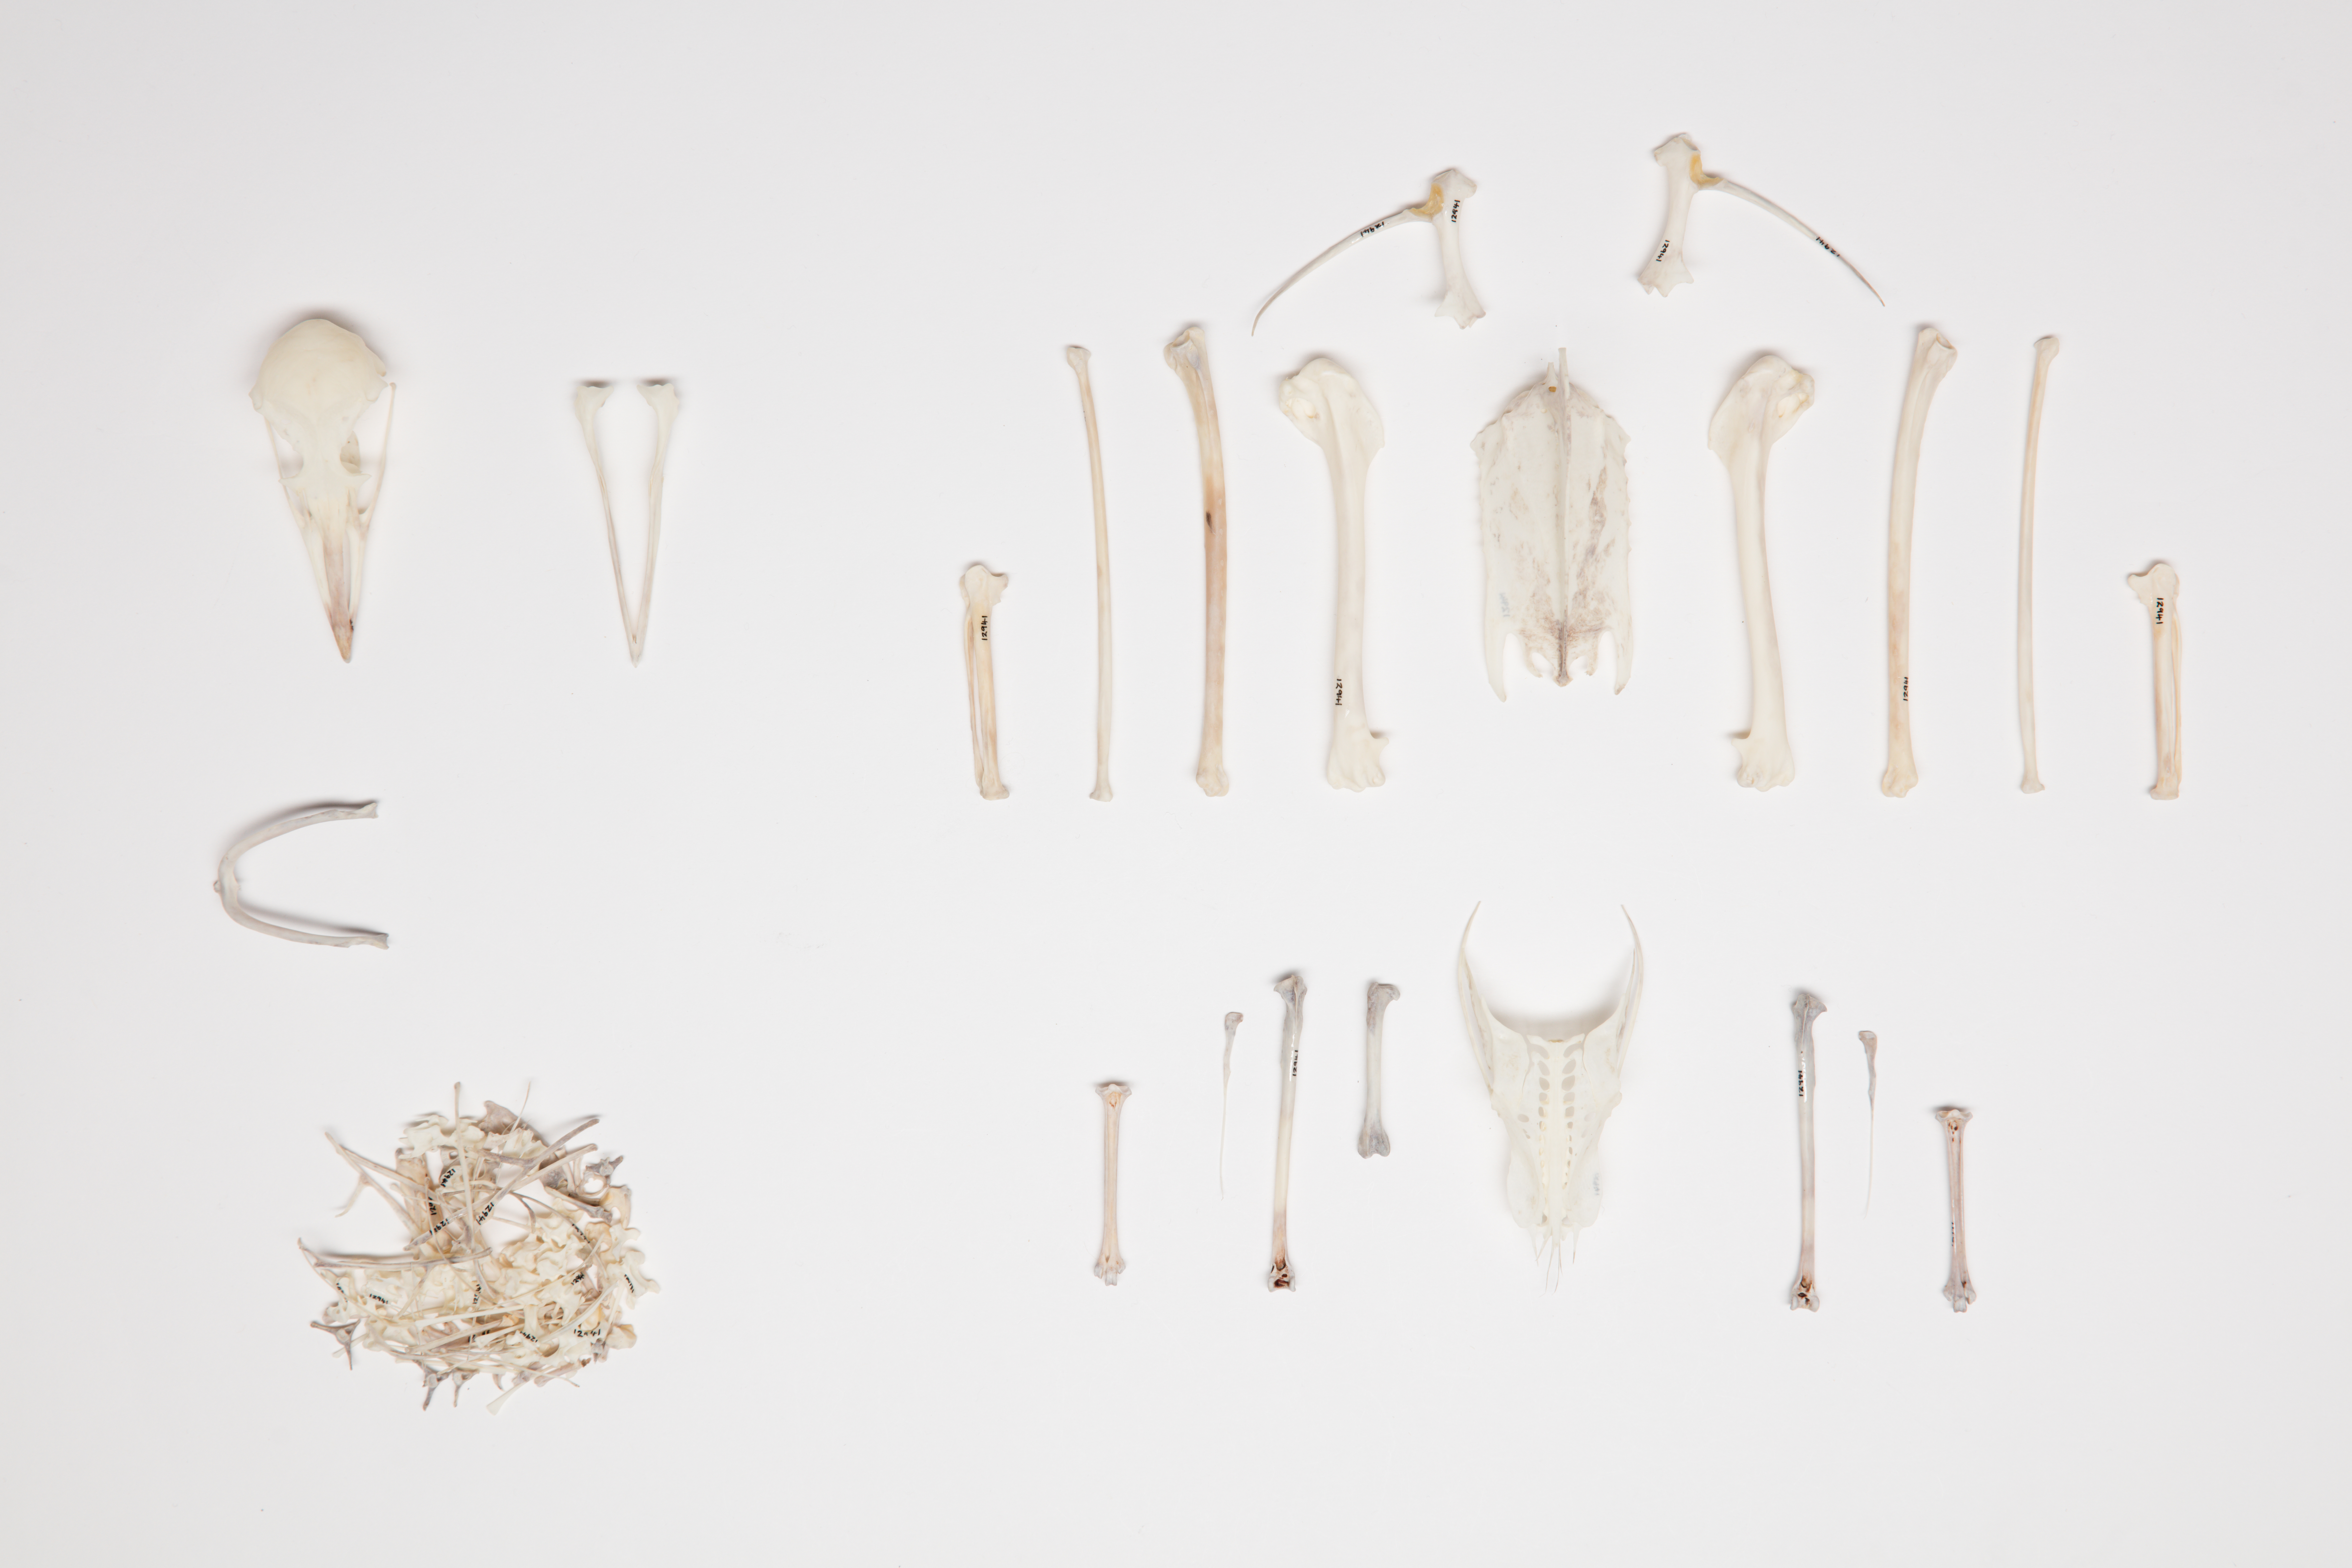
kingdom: Animalia
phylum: Chordata
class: Aves
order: Charadriiformes
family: Stercorariidae
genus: Stercorarius
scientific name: Stercorarius parasiticus
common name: Parasitic jaeger
